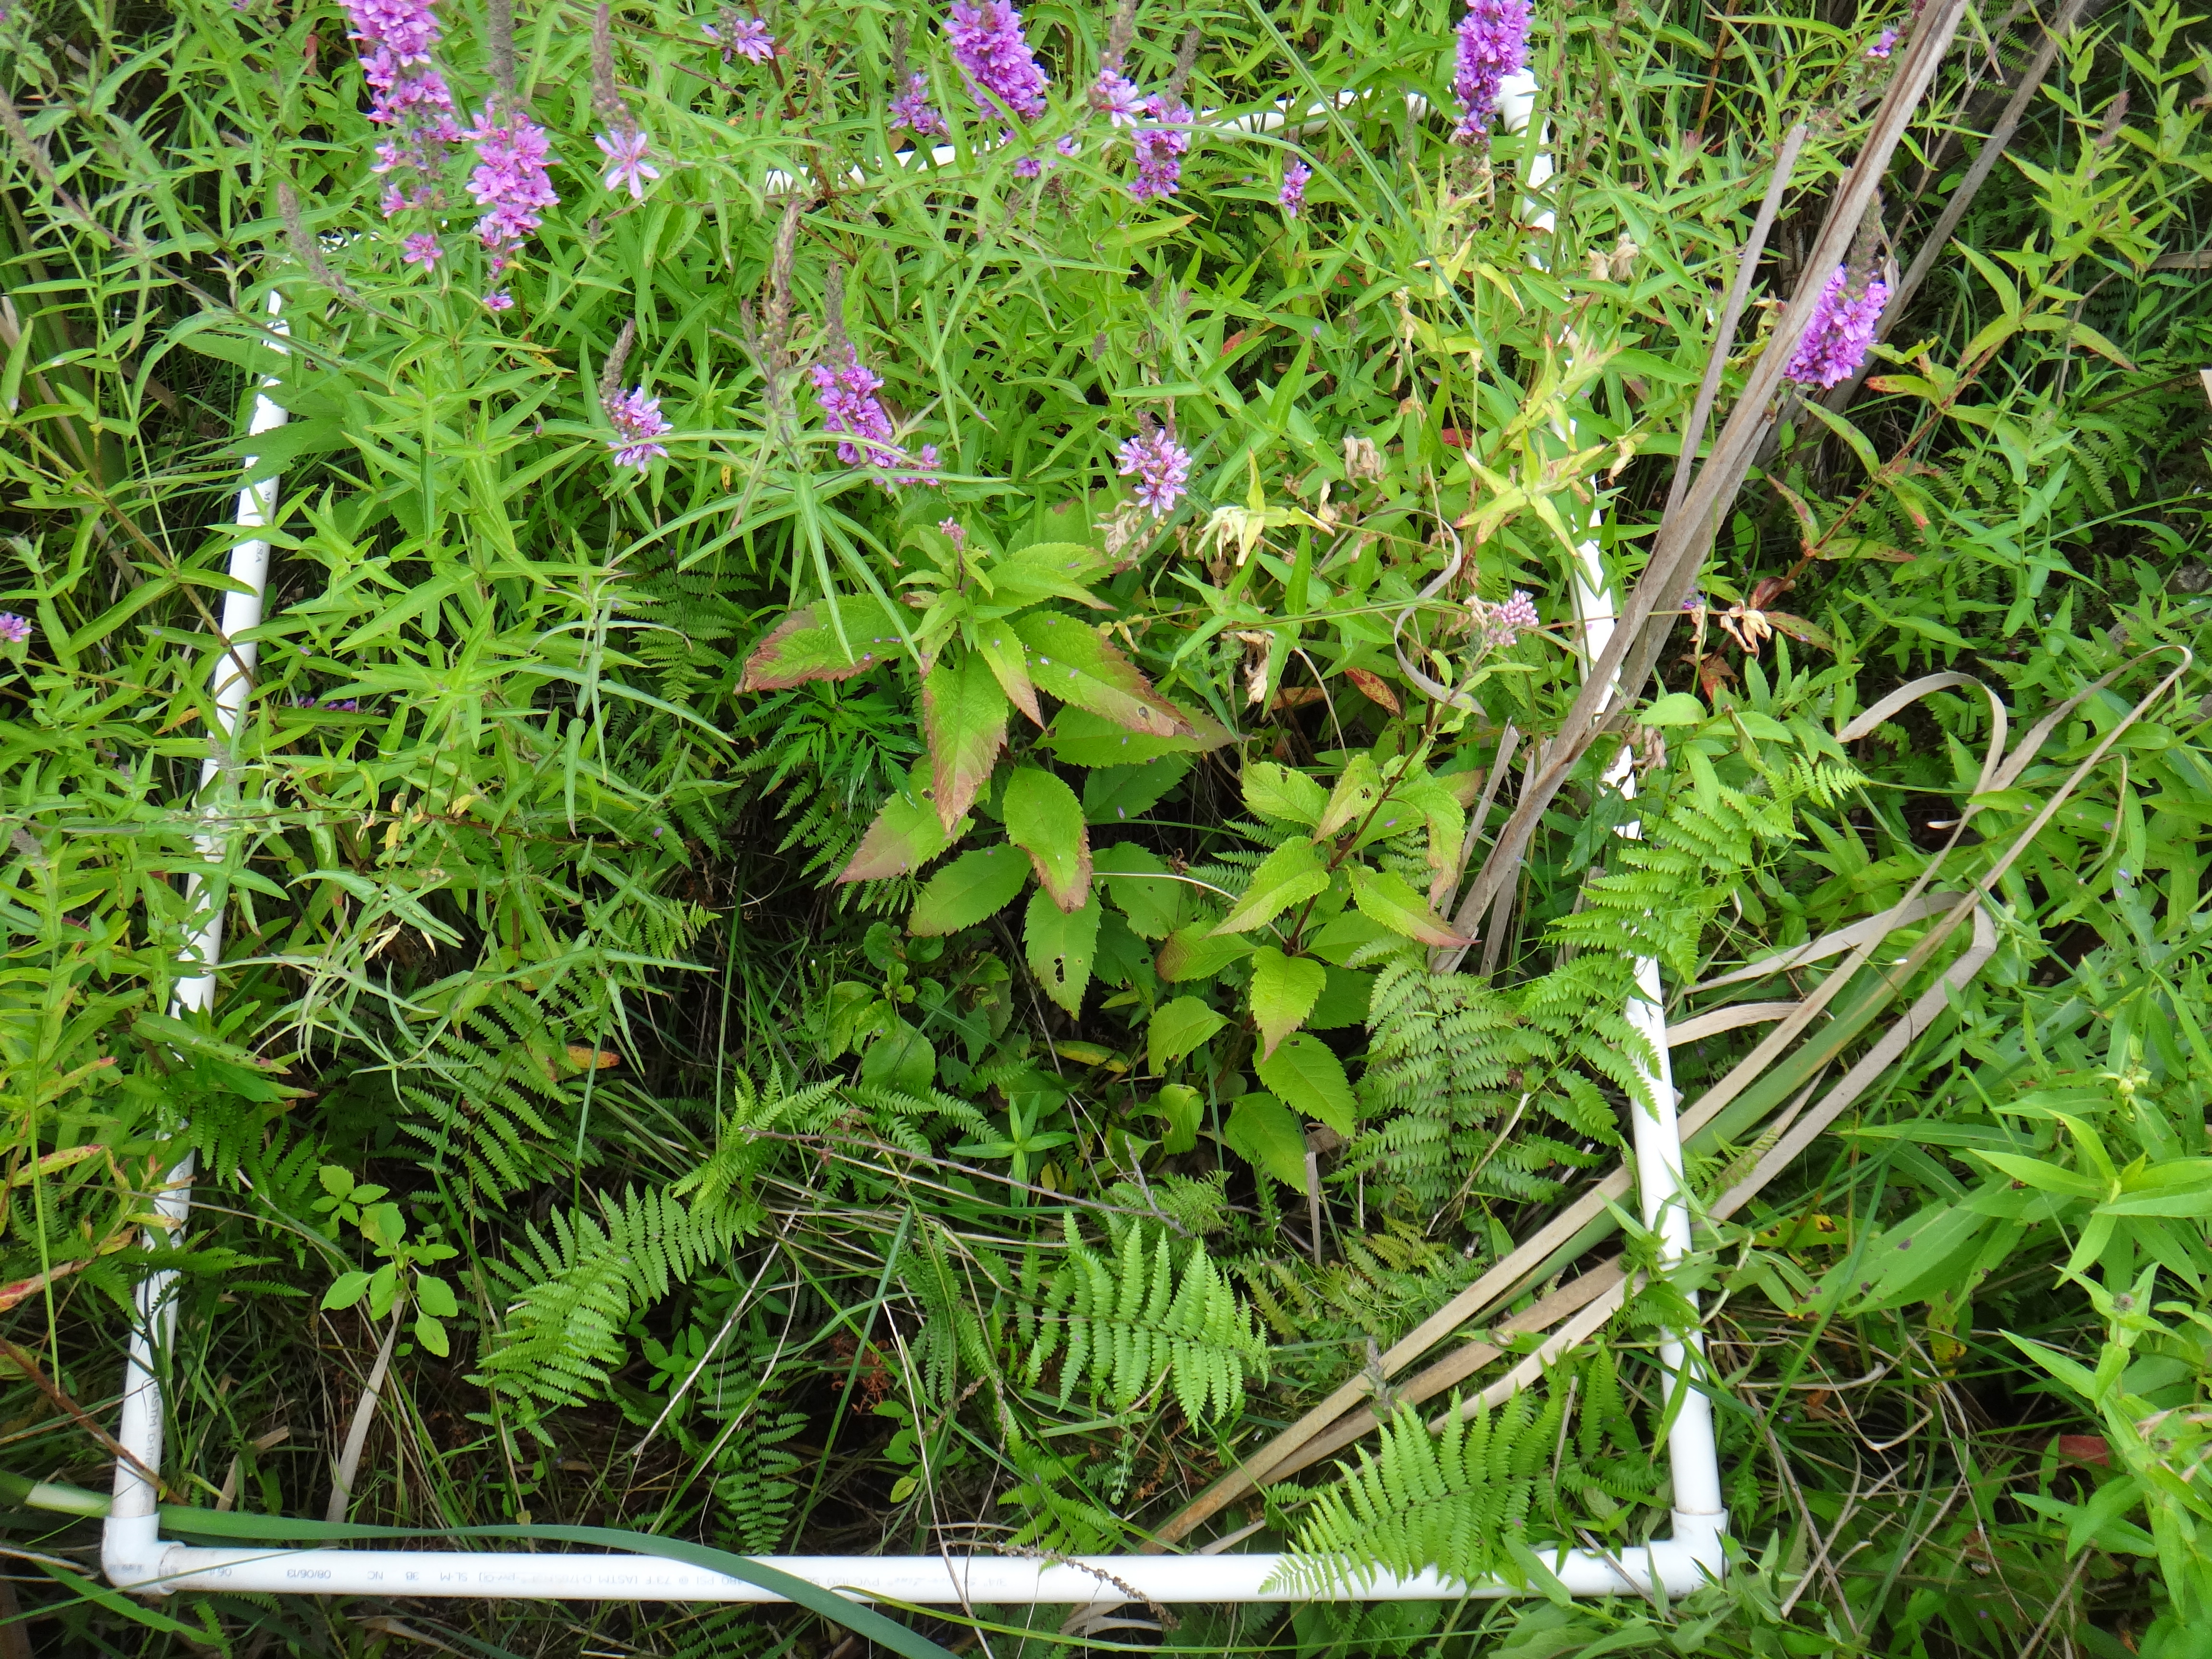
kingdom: Plantae
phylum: Tracheophyta
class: Polypodiopsida
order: Polypodiales
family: Thelypteridaceae
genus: Thelypteris
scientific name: Thelypteris palustris
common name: Marsh fern
